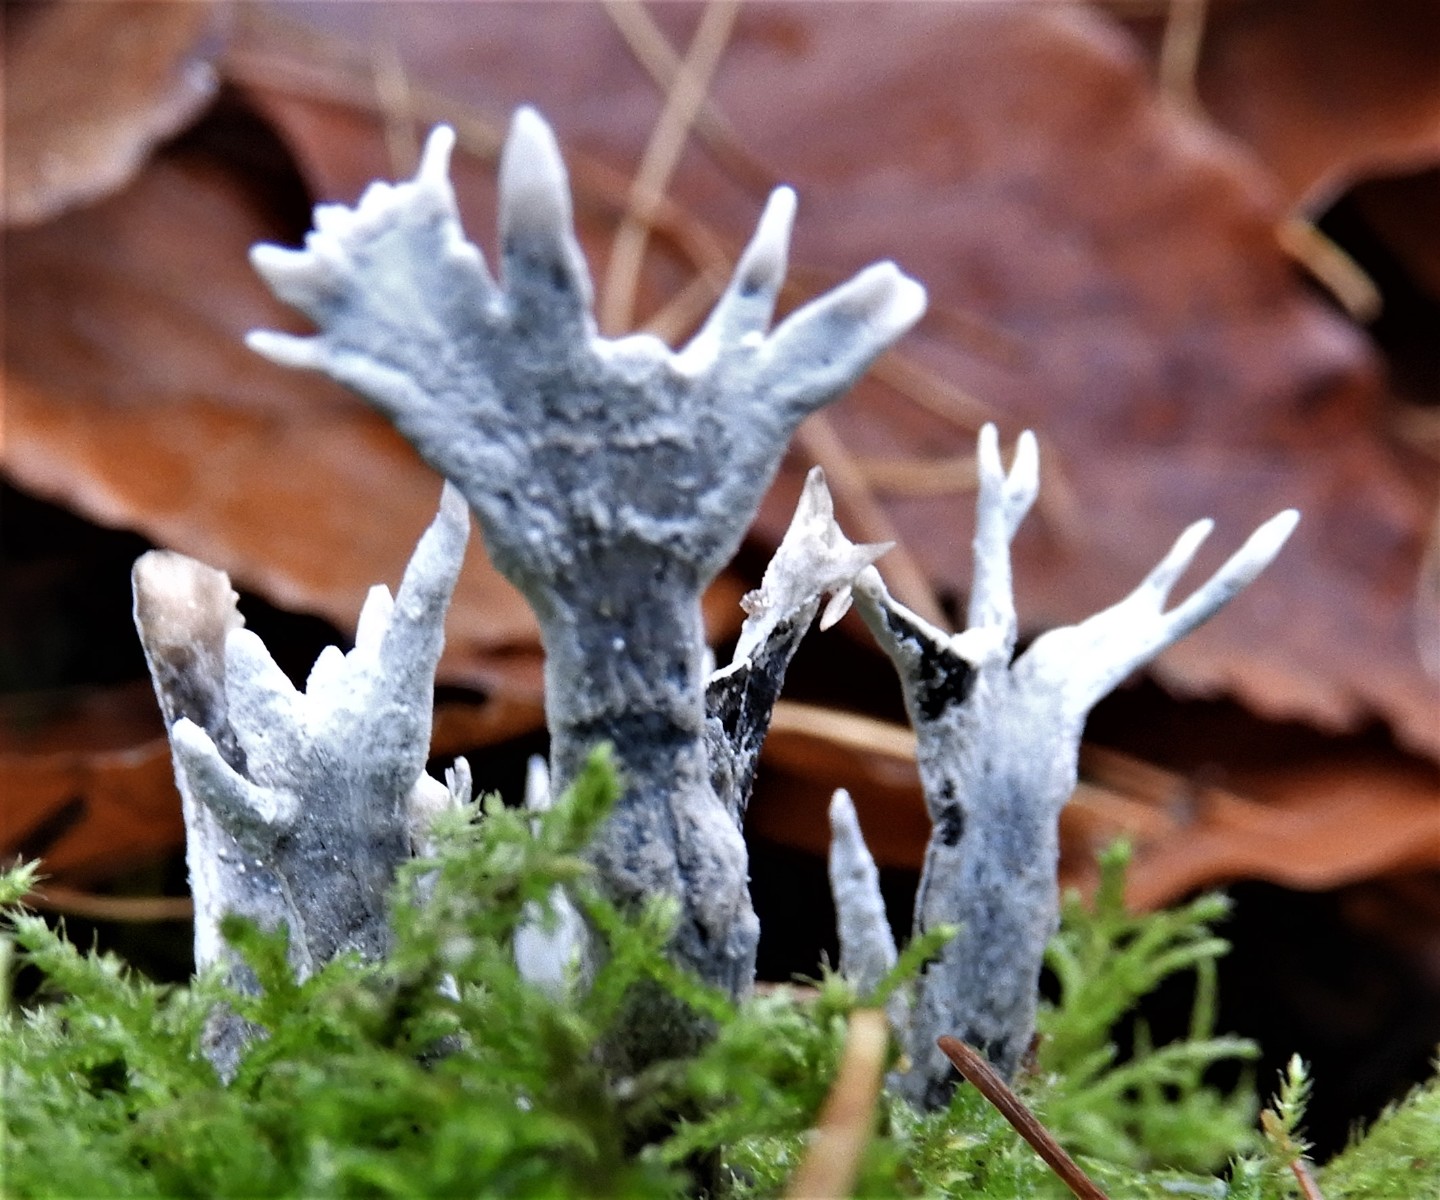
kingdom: Fungi
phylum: Ascomycota
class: Sordariomycetes
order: Xylariales
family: Xylariaceae
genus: Xylaria
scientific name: Xylaria hypoxylon
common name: grenet stødsvamp
